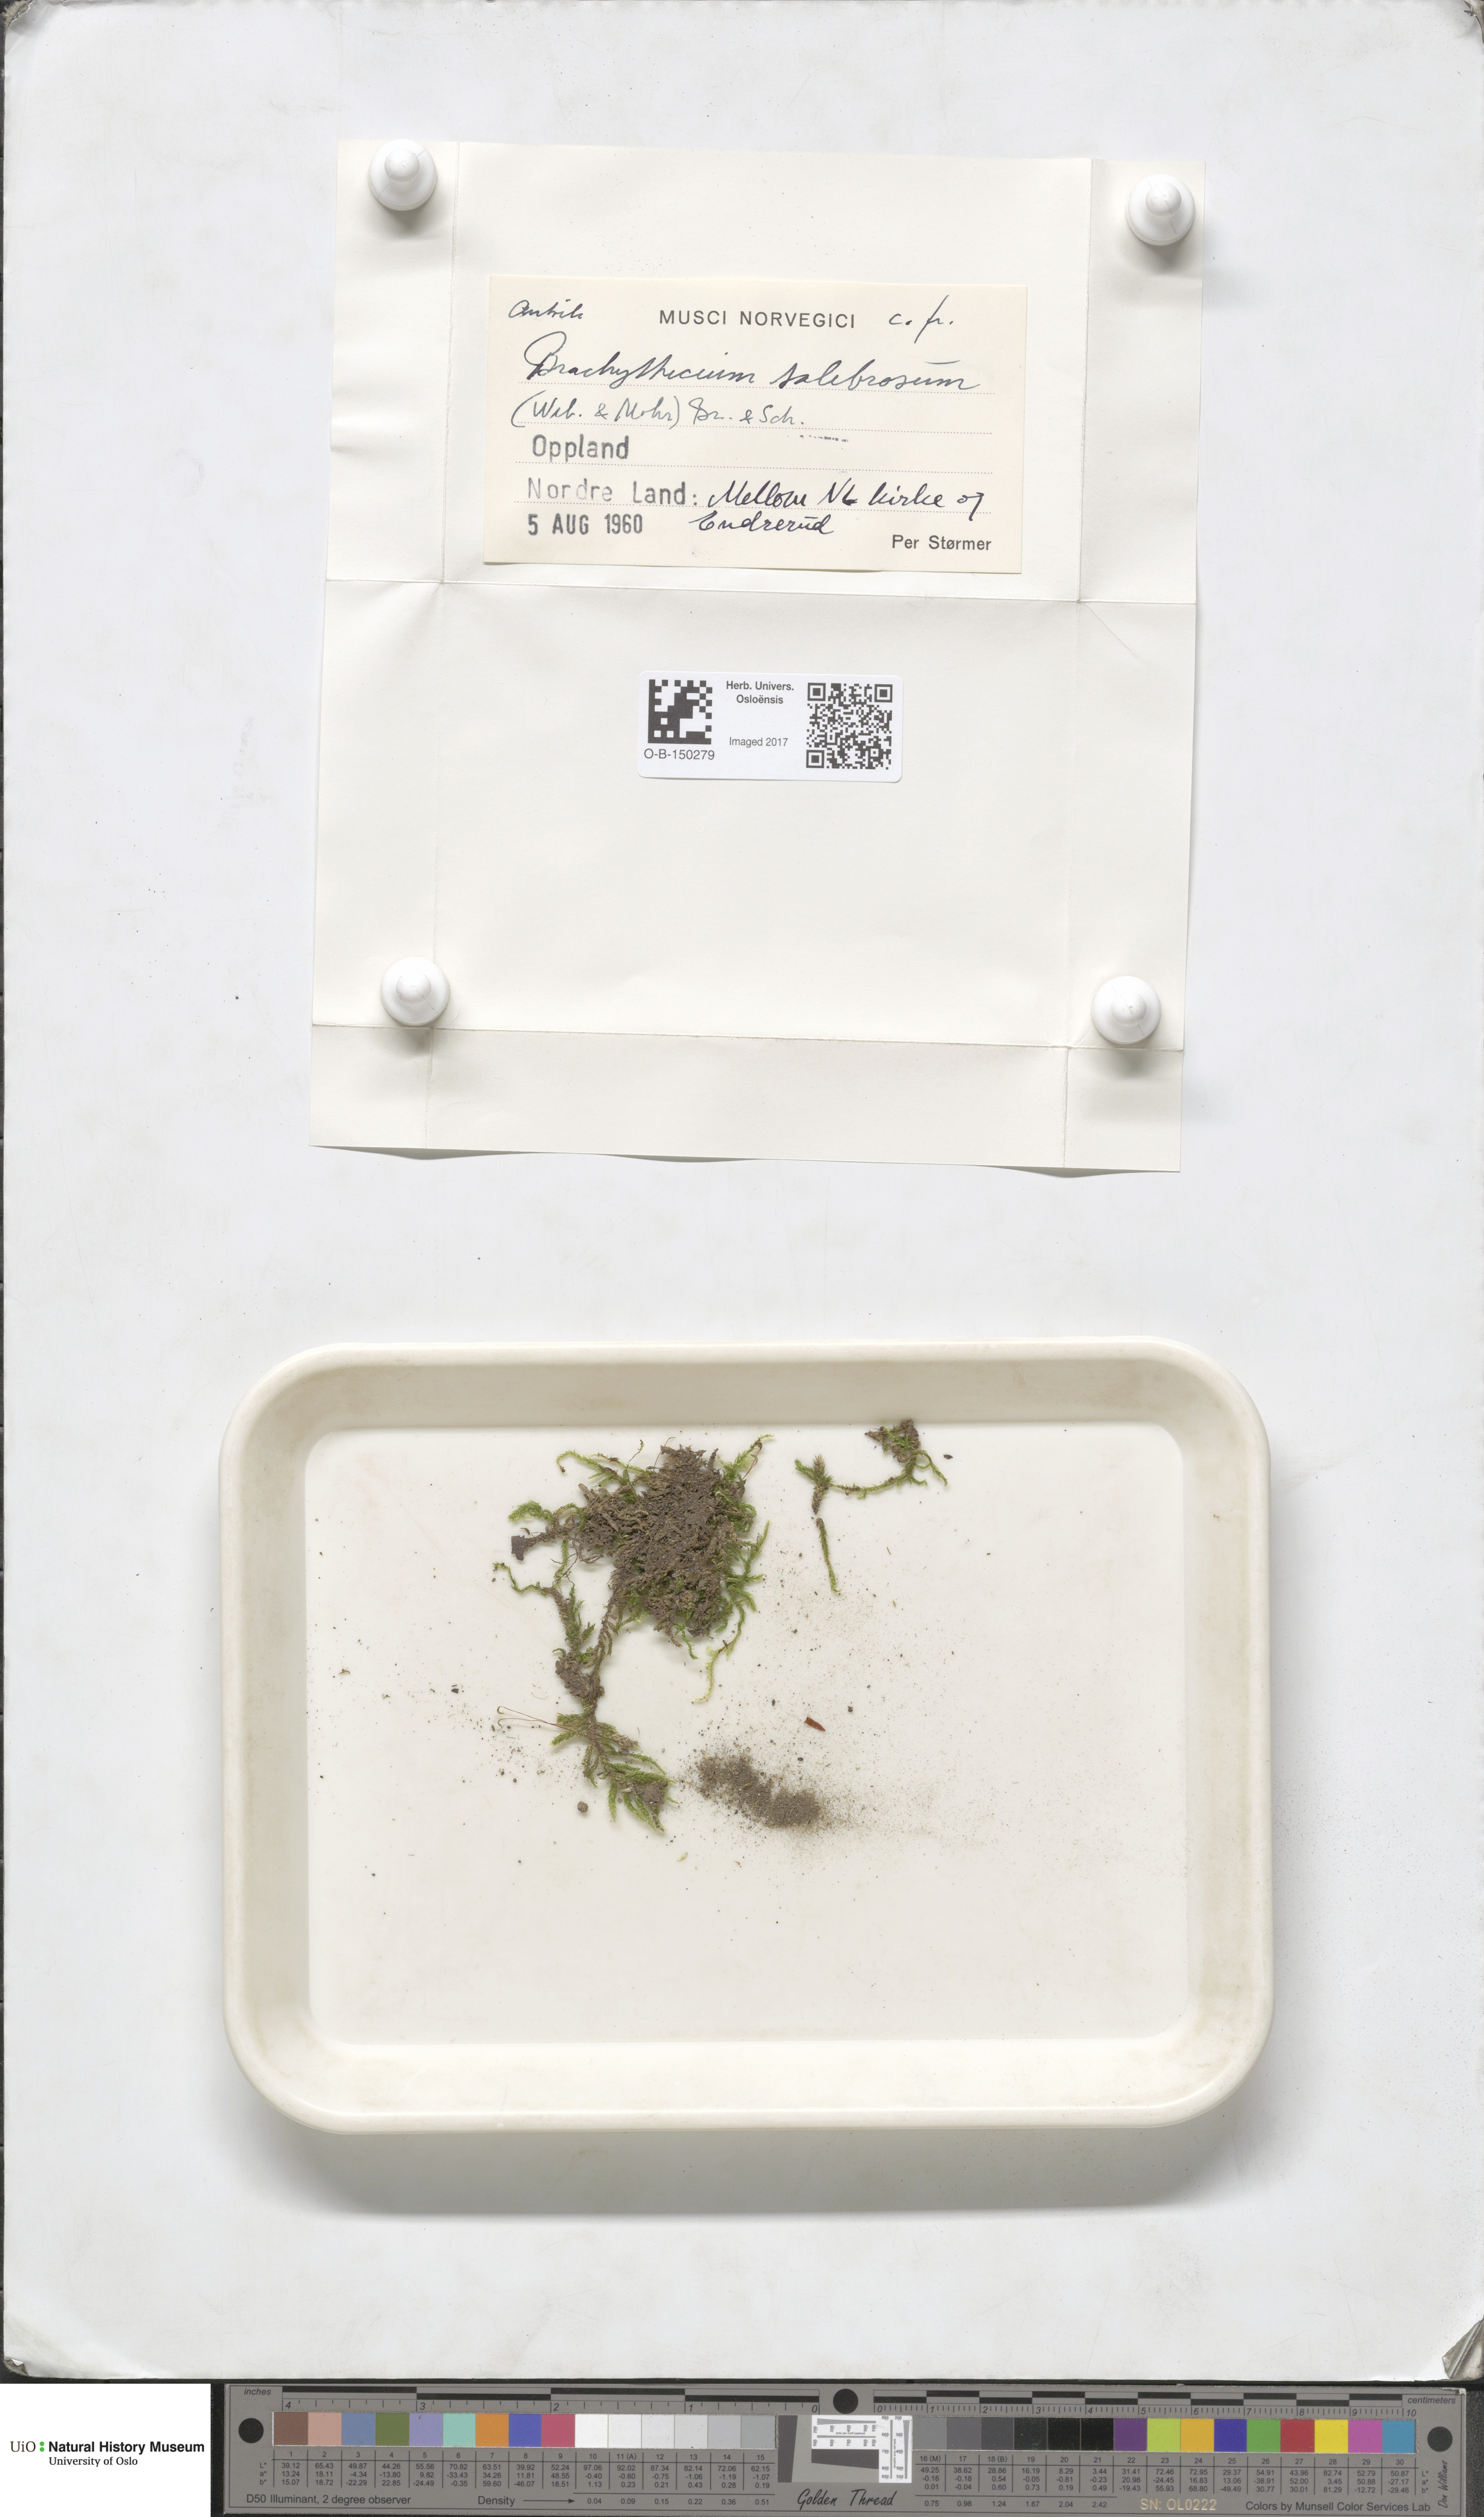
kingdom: Plantae
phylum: Bryophyta
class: Bryopsida
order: Hypnales
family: Brachytheciaceae
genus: Brachythecium
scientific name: Brachythecium salebrosum
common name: Smooth-stalk feather-moss
